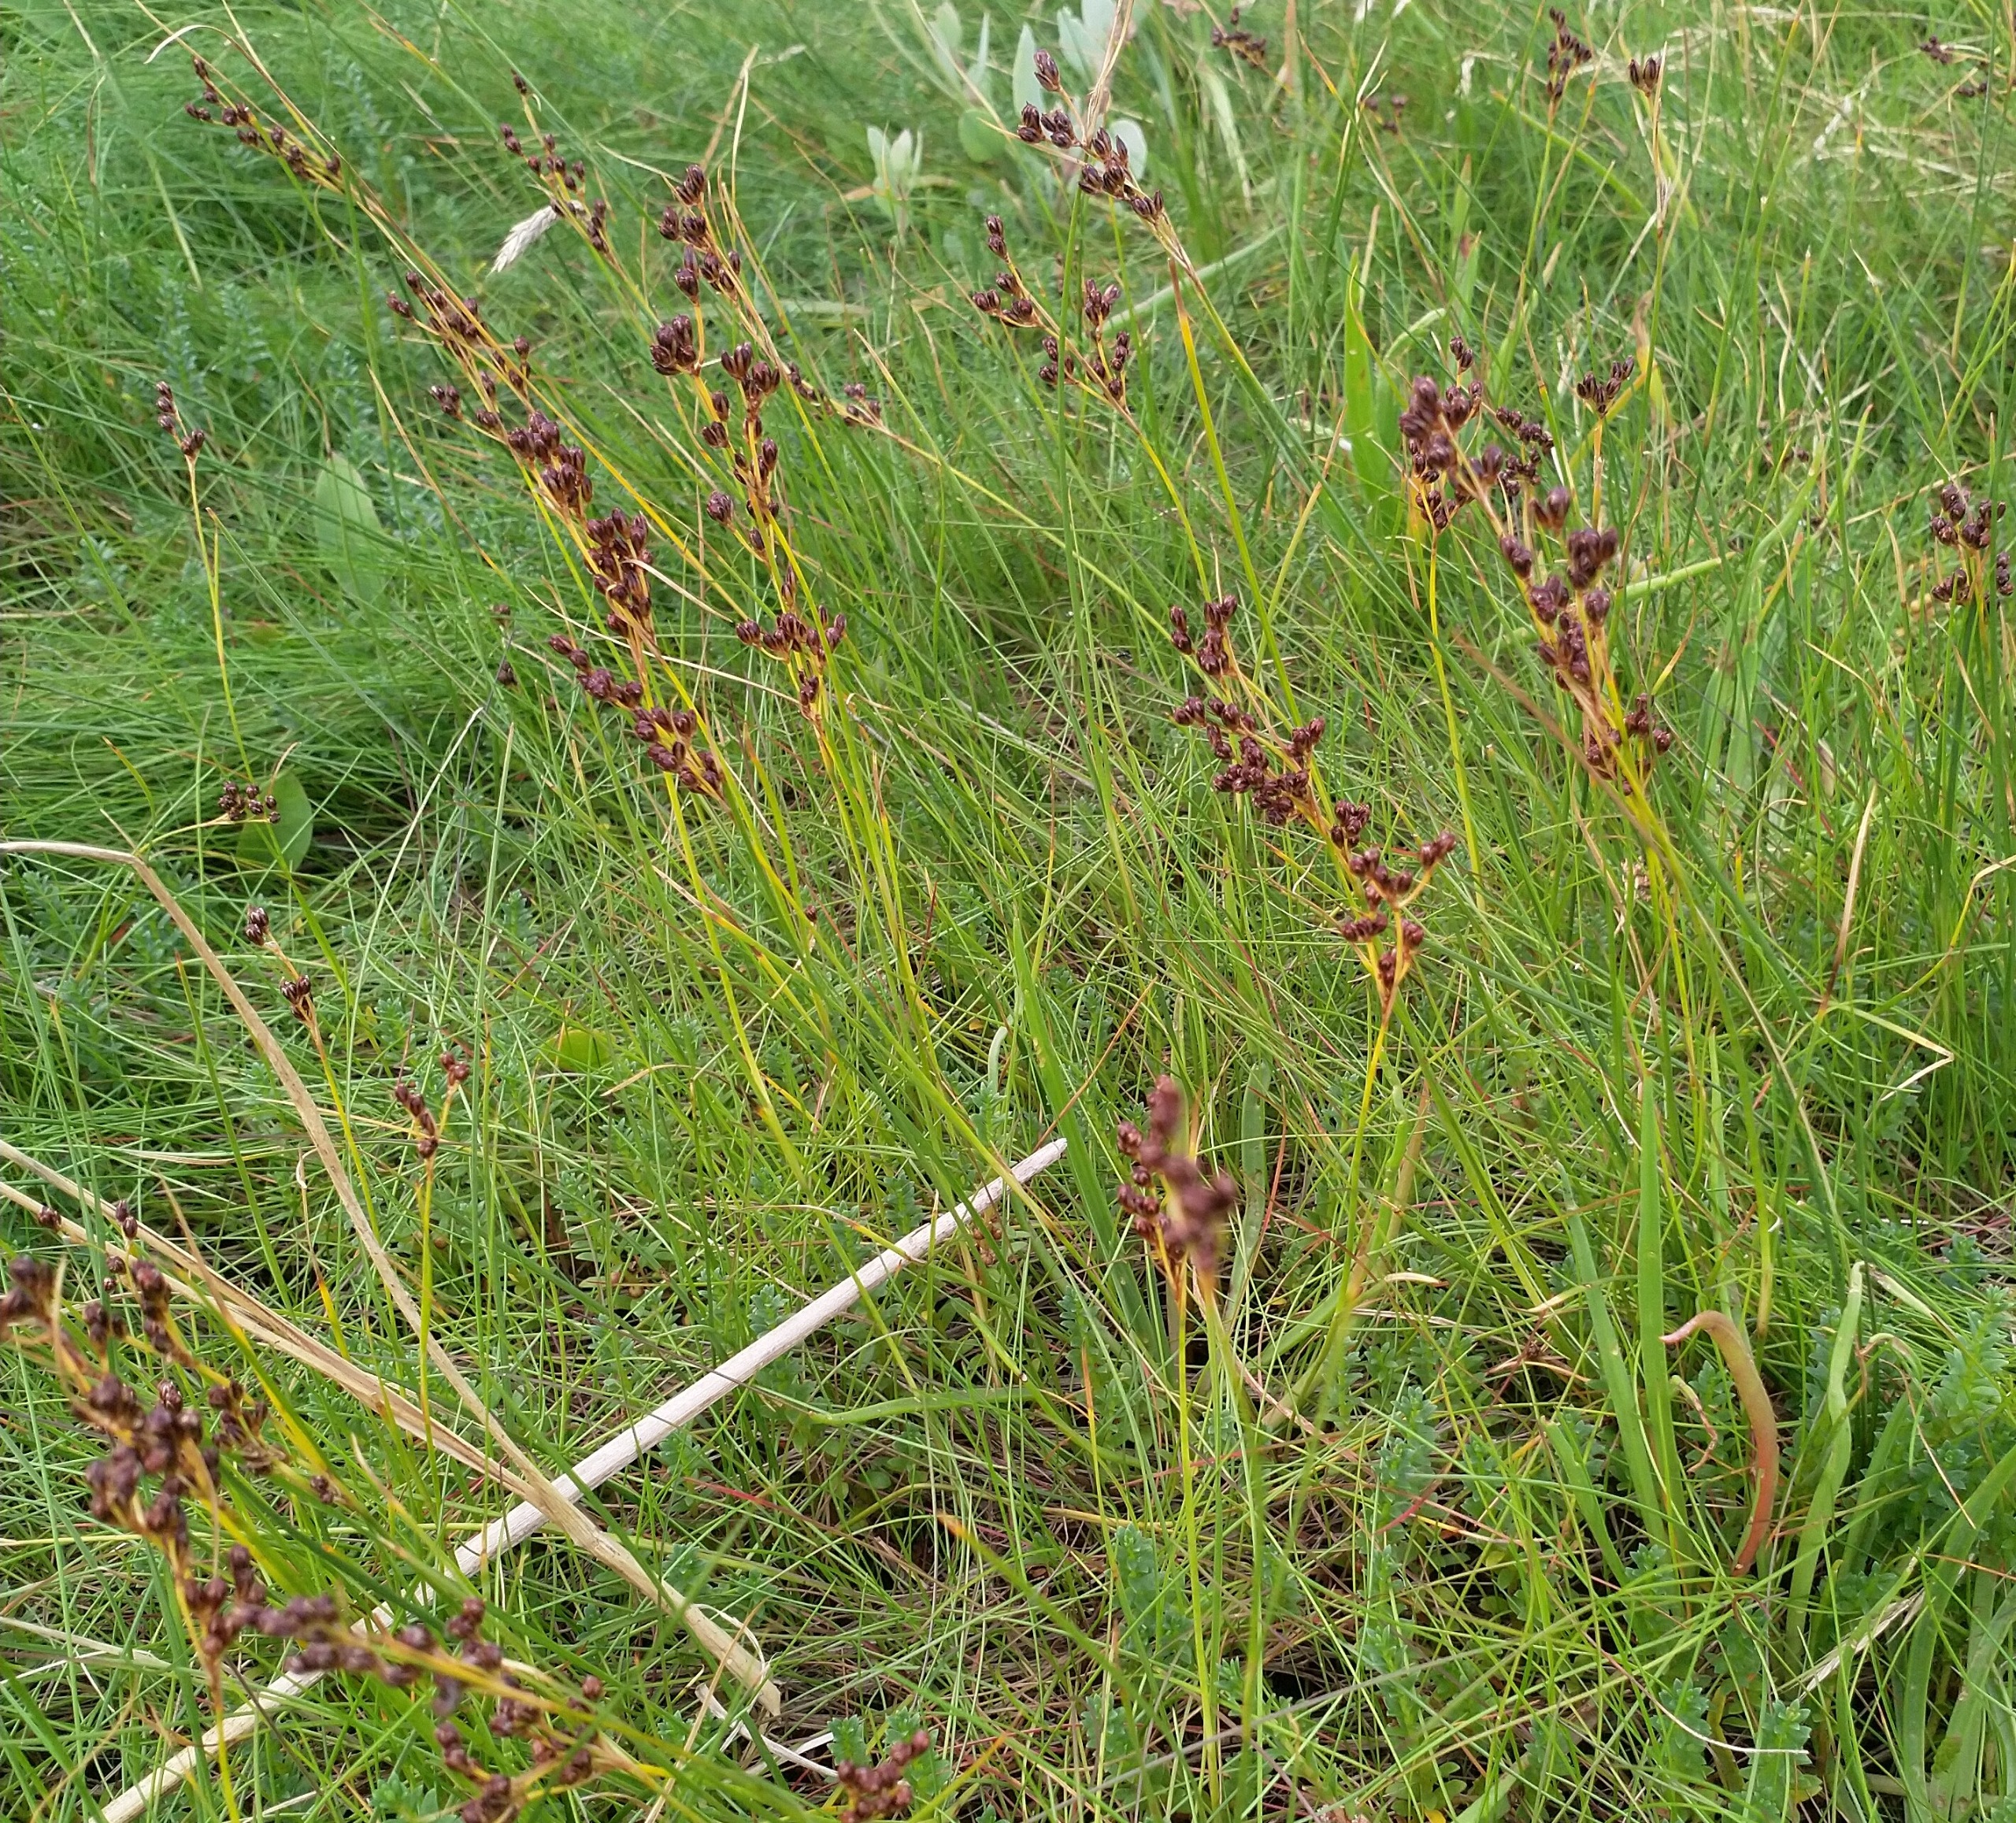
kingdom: Plantae
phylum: Tracheophyta
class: Liliopsida
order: Poales
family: Juncaceae
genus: Juncus
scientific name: Juncus gerardi
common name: Harril
